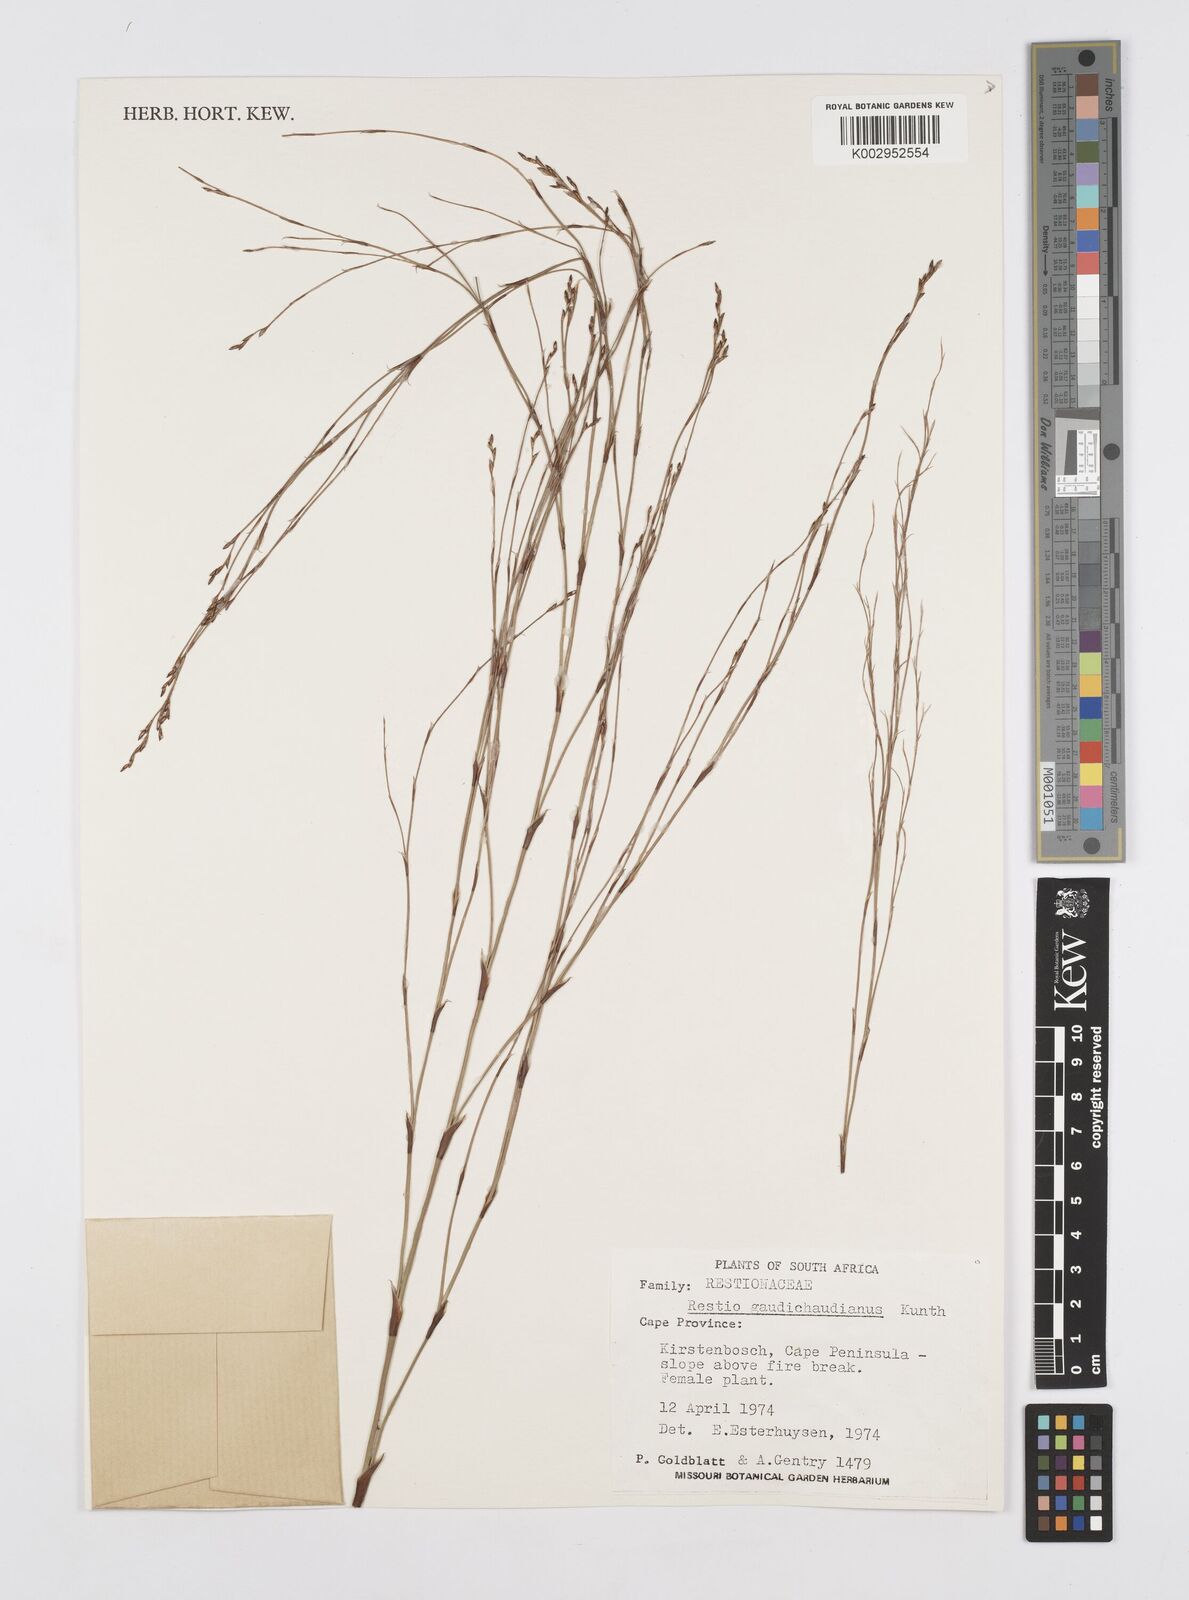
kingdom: Plantae
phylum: Tracheophyta
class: Liliopsida
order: Poales
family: Restionaceae
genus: Restio
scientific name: Restio gaudichaudianus
